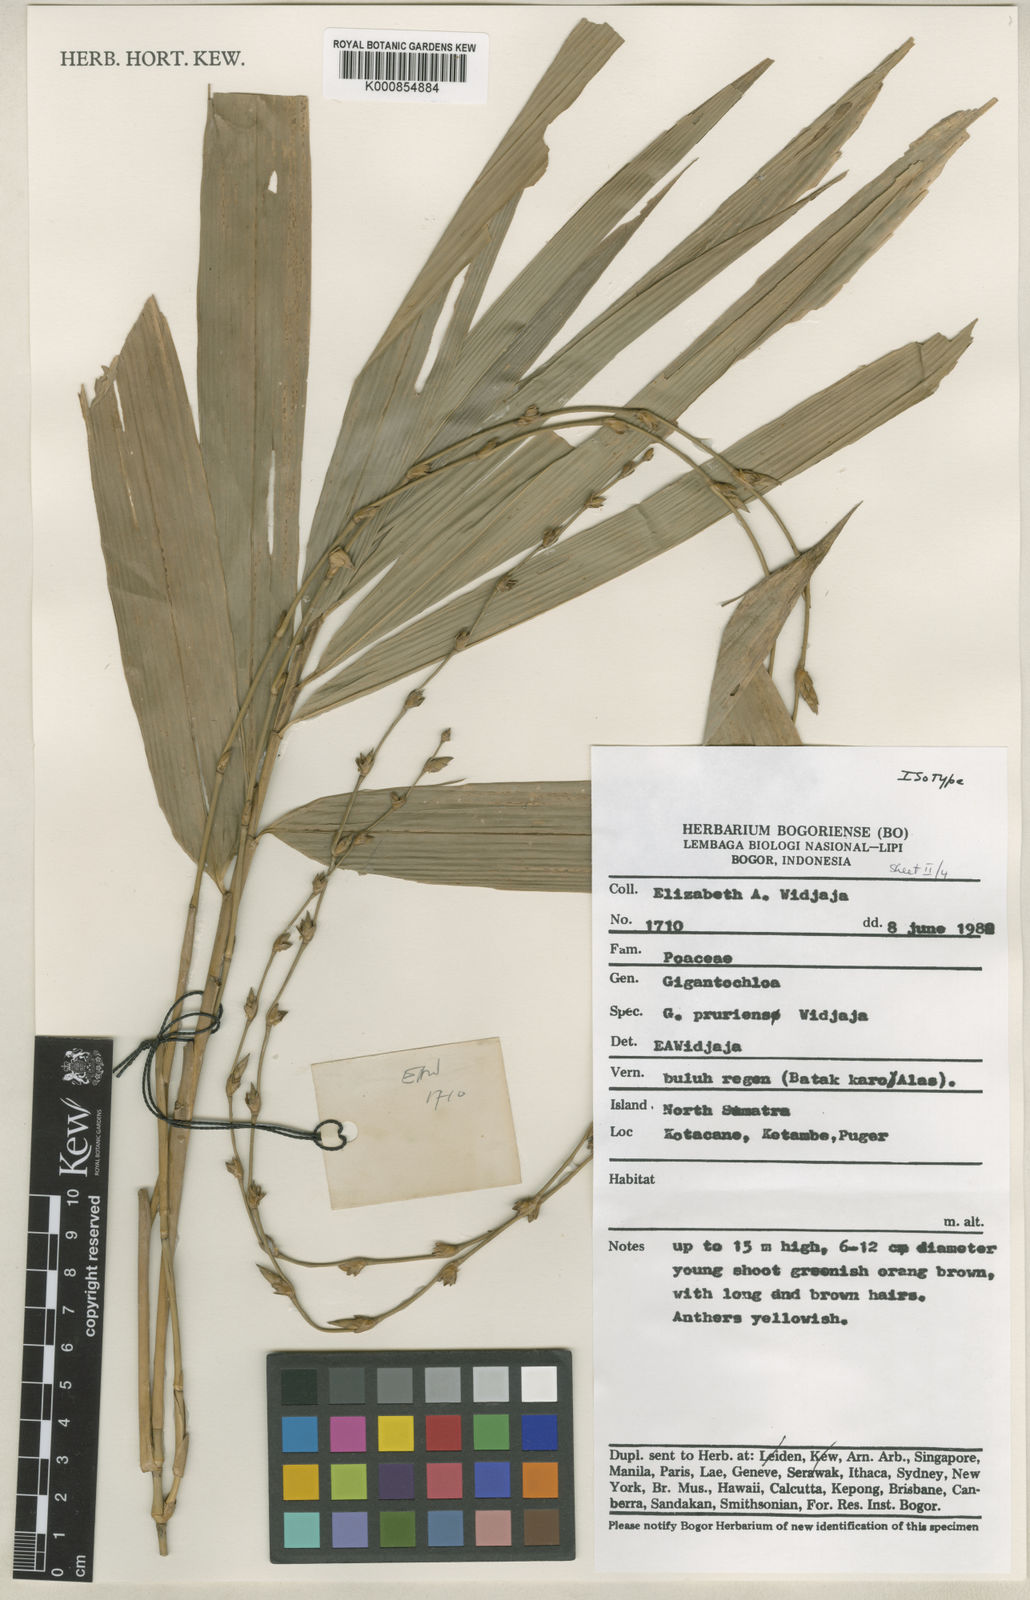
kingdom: Plantae
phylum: Tracheophyta
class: Liliopsida
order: Poales
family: Poaceae
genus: Gigantochloa
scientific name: Gigantochloa pruriens
